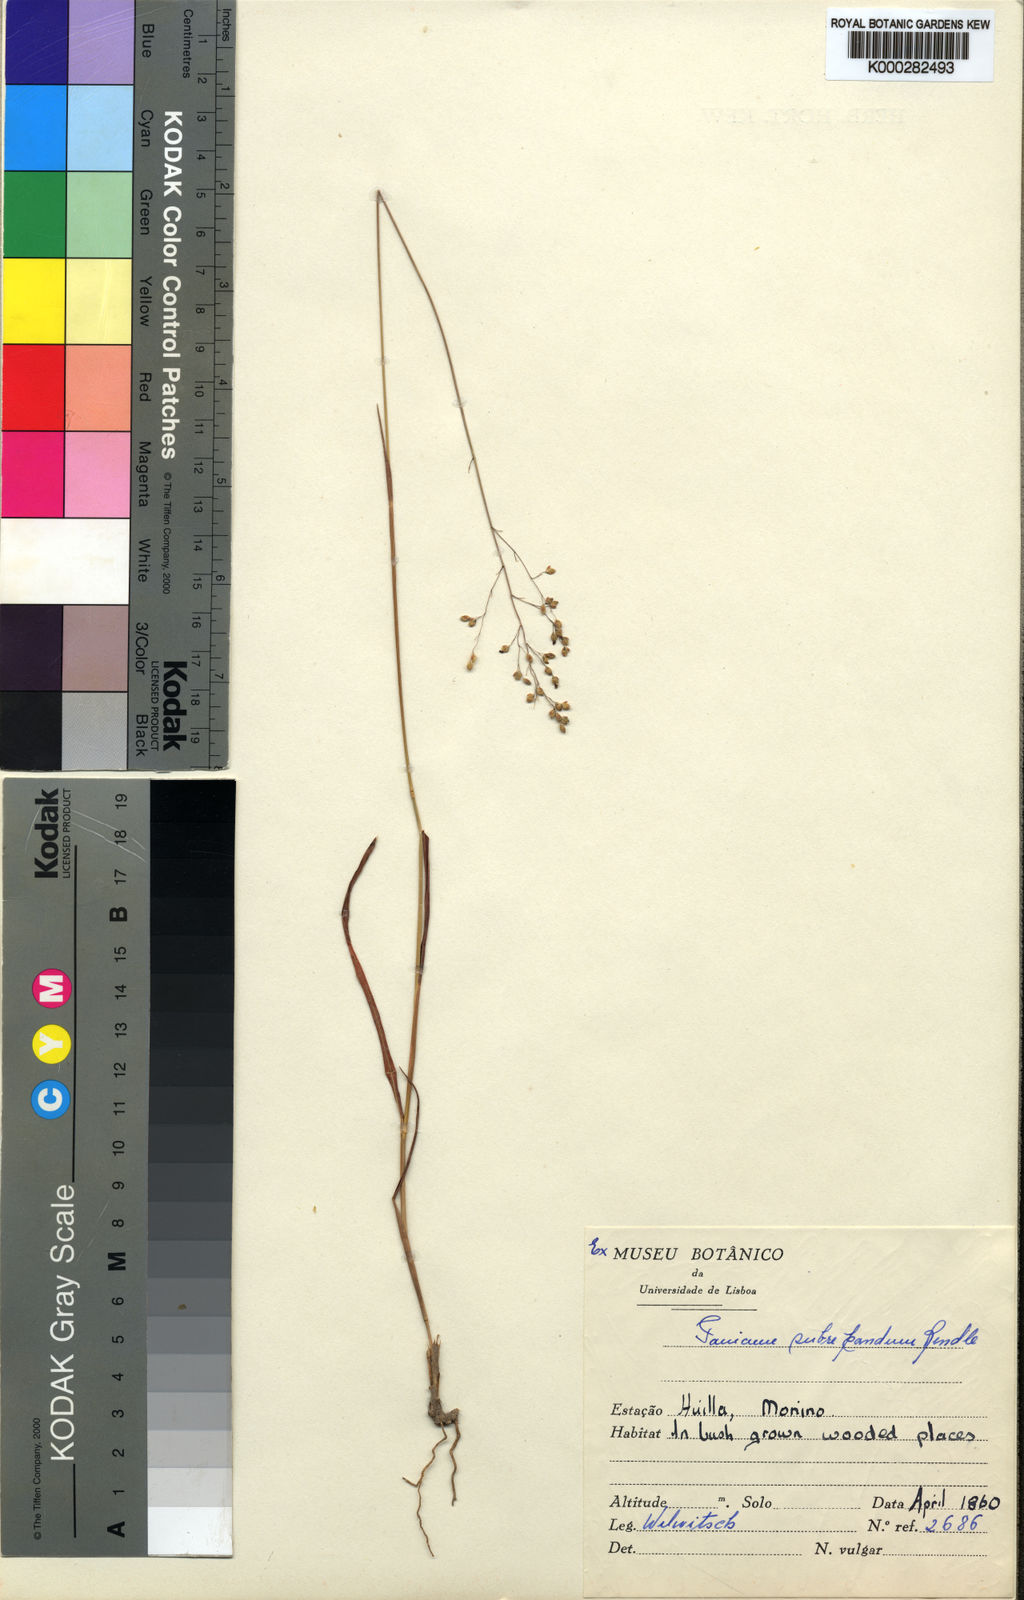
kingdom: Plantae
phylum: Tracheophyta
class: Liliopsida
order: Poales
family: Poaceae
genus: Trichanthecium
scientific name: Trichanthecium nervatum
